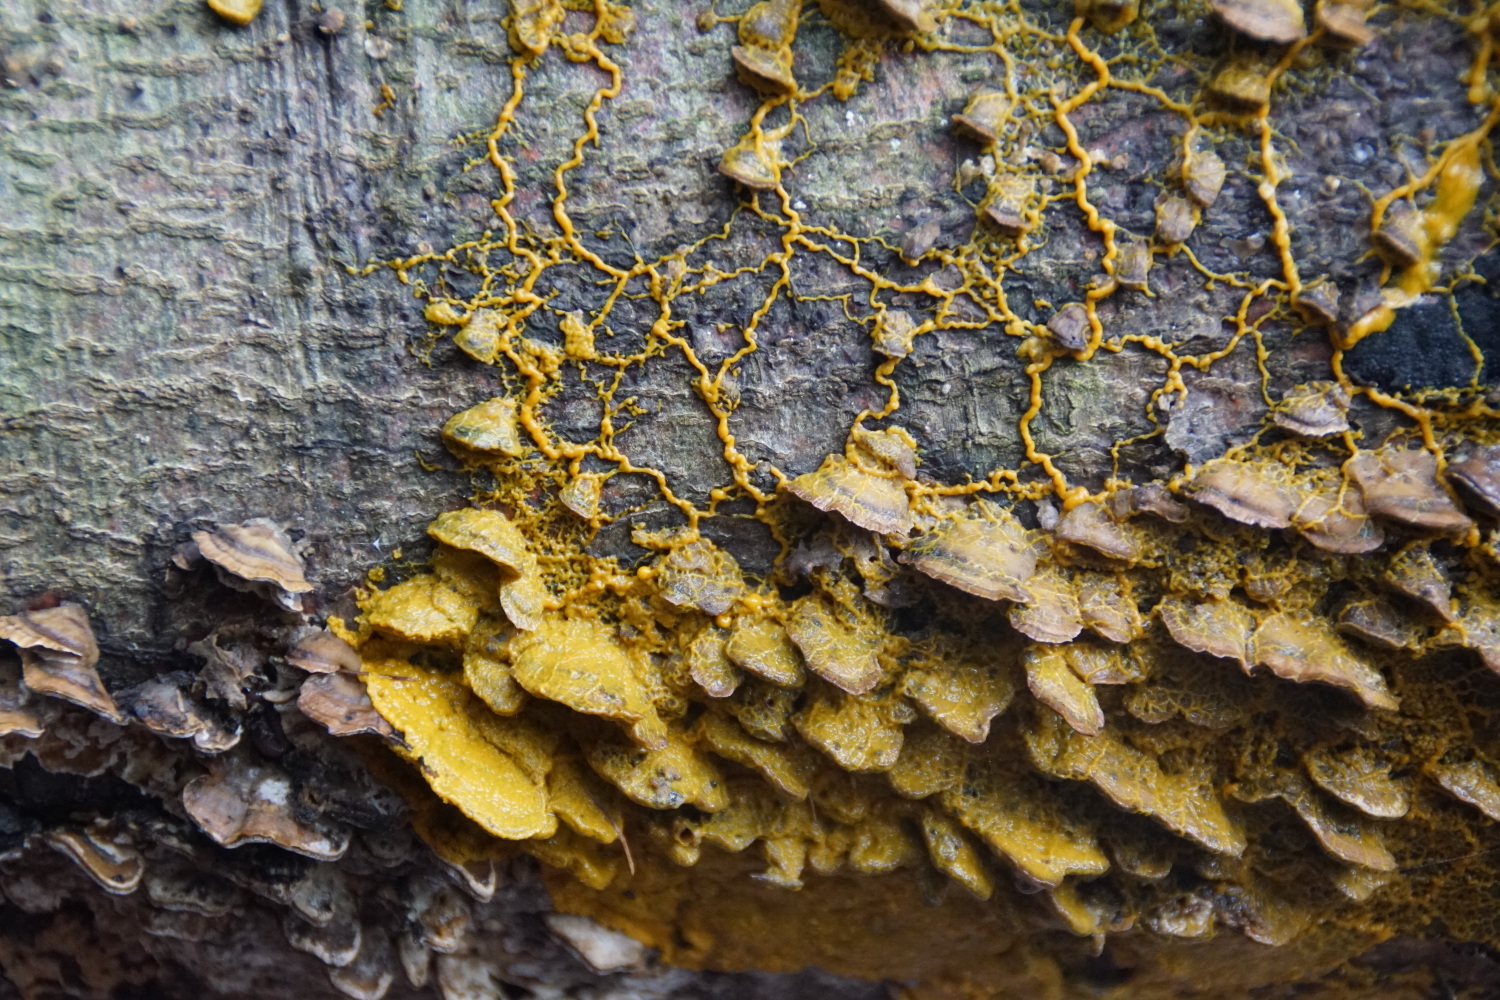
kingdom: Protozoa
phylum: Mycetozoa
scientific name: Mycetozoa
